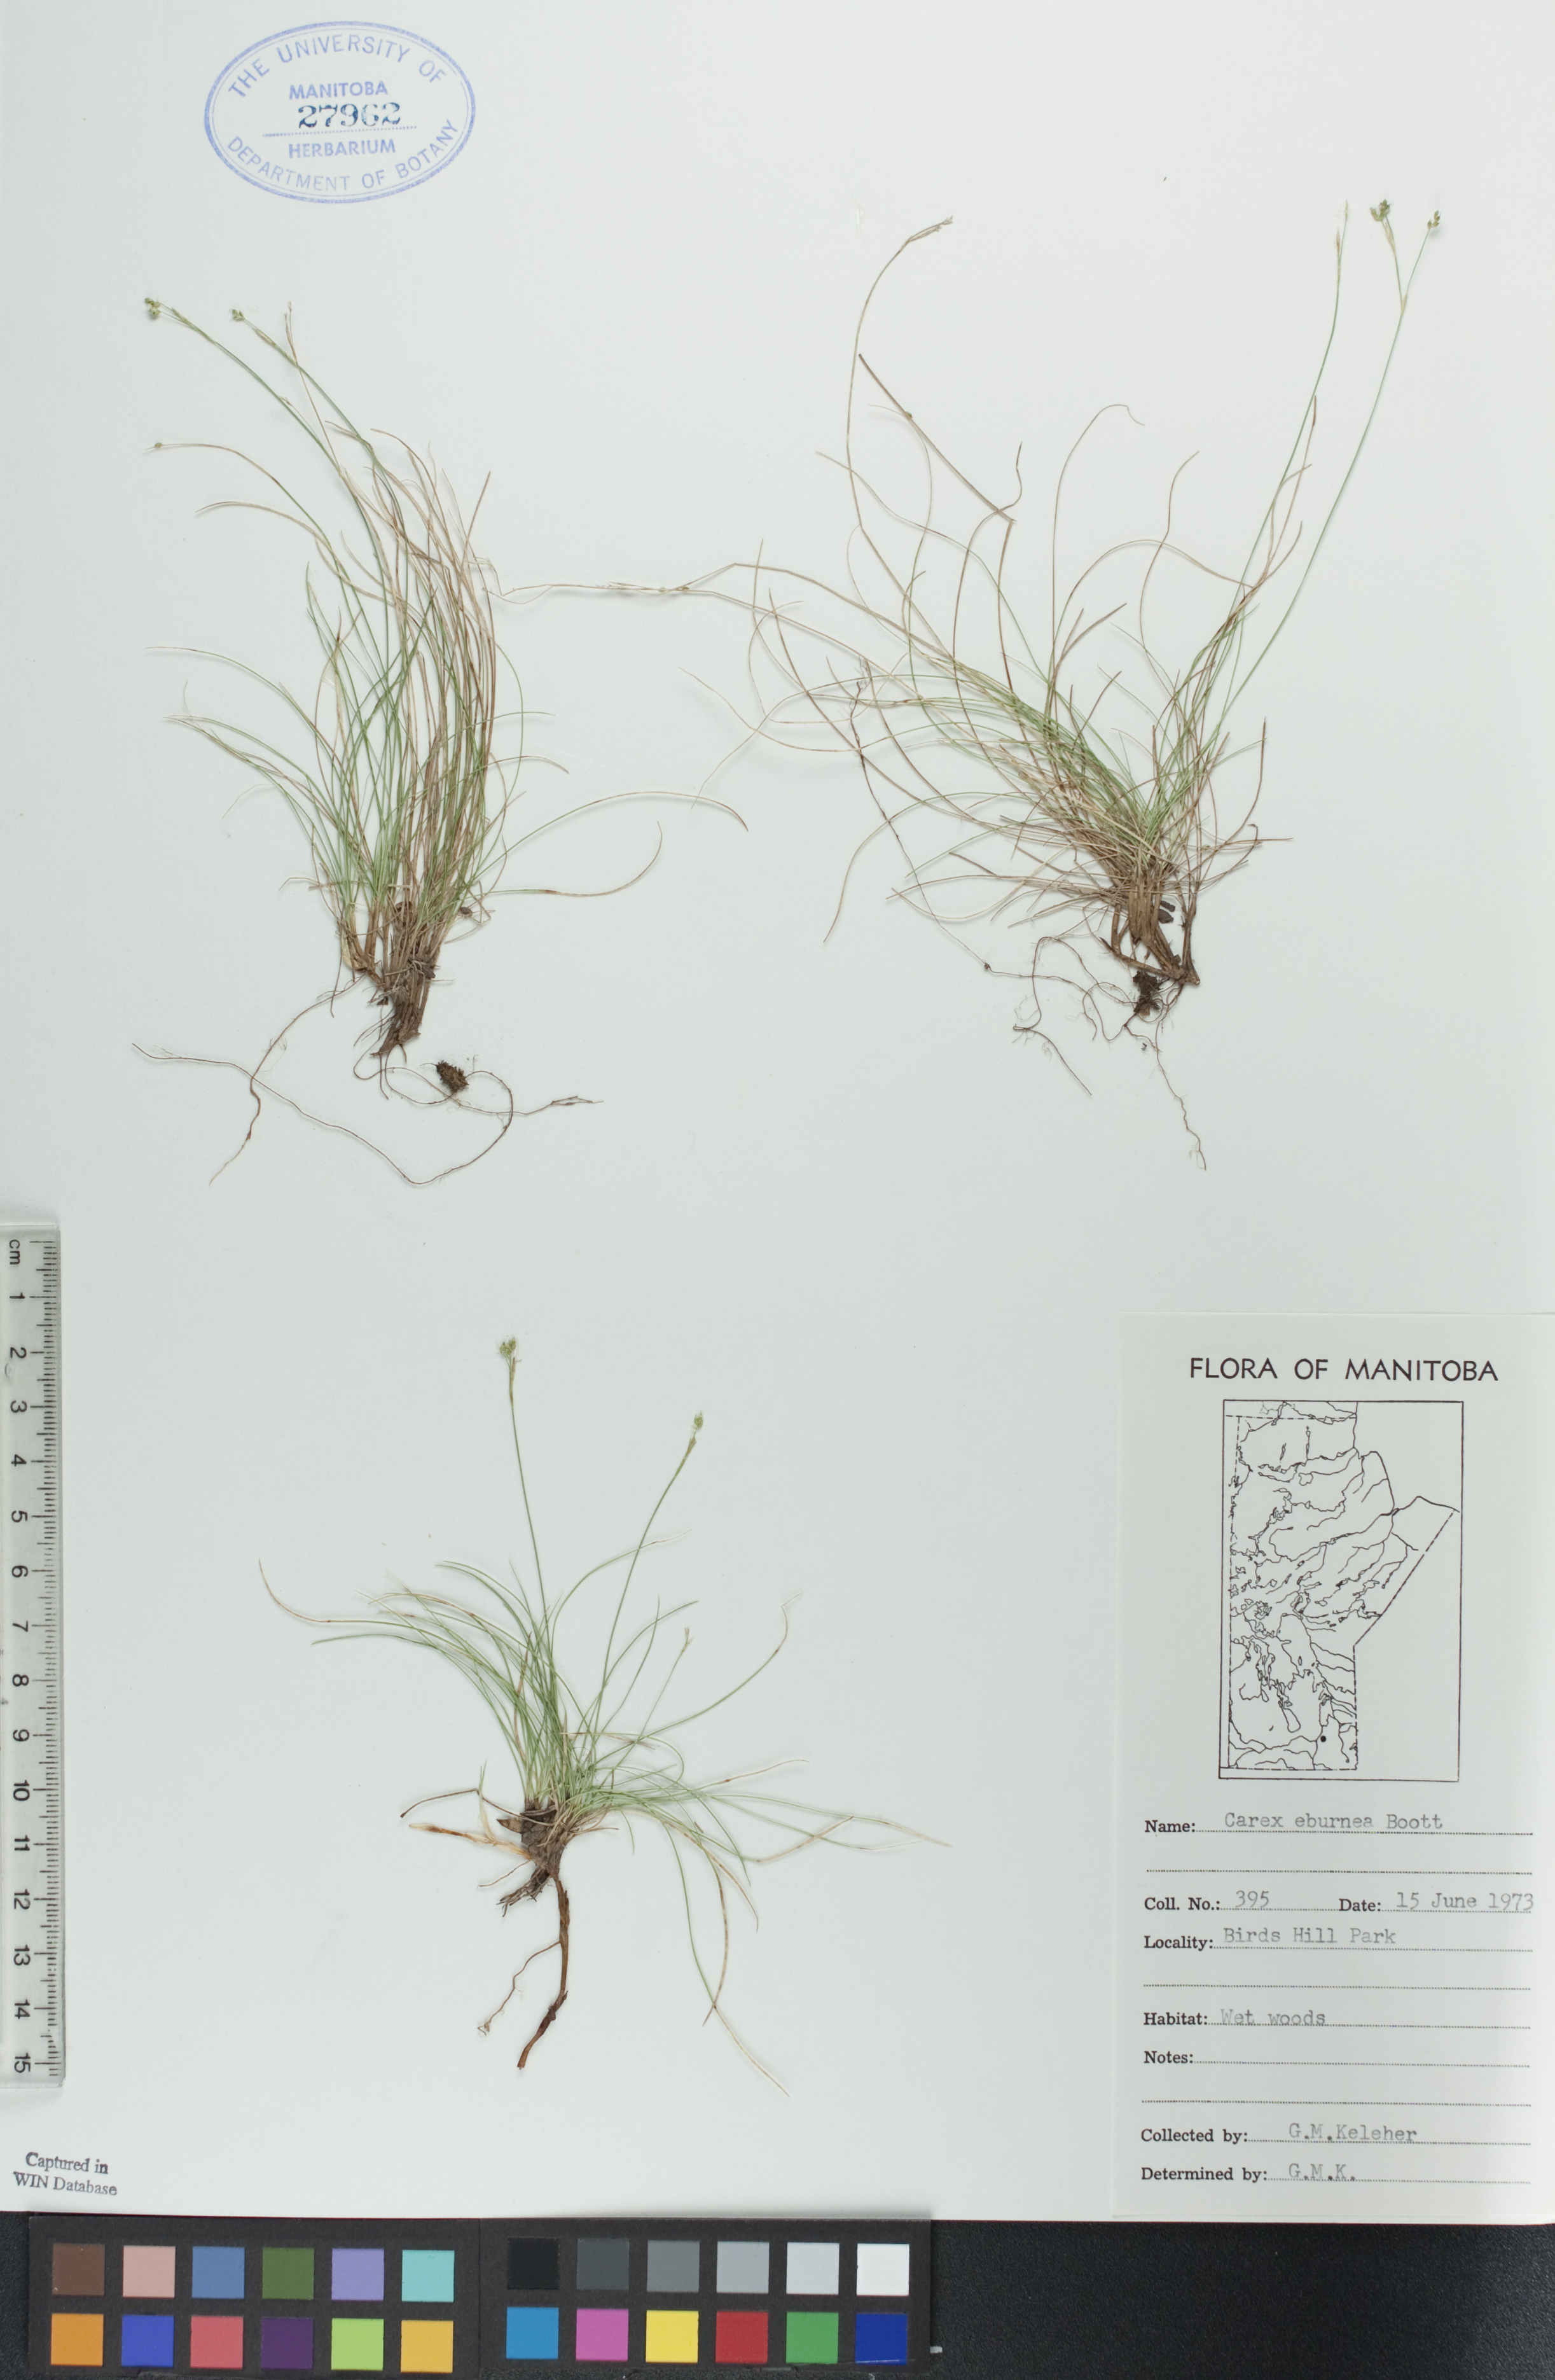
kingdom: Plantae
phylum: Tracheophyta
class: Liliopsida
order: Poales
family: Cyperaceae
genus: Carex
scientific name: Carex eburnea
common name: Bristle-leaved sedge
